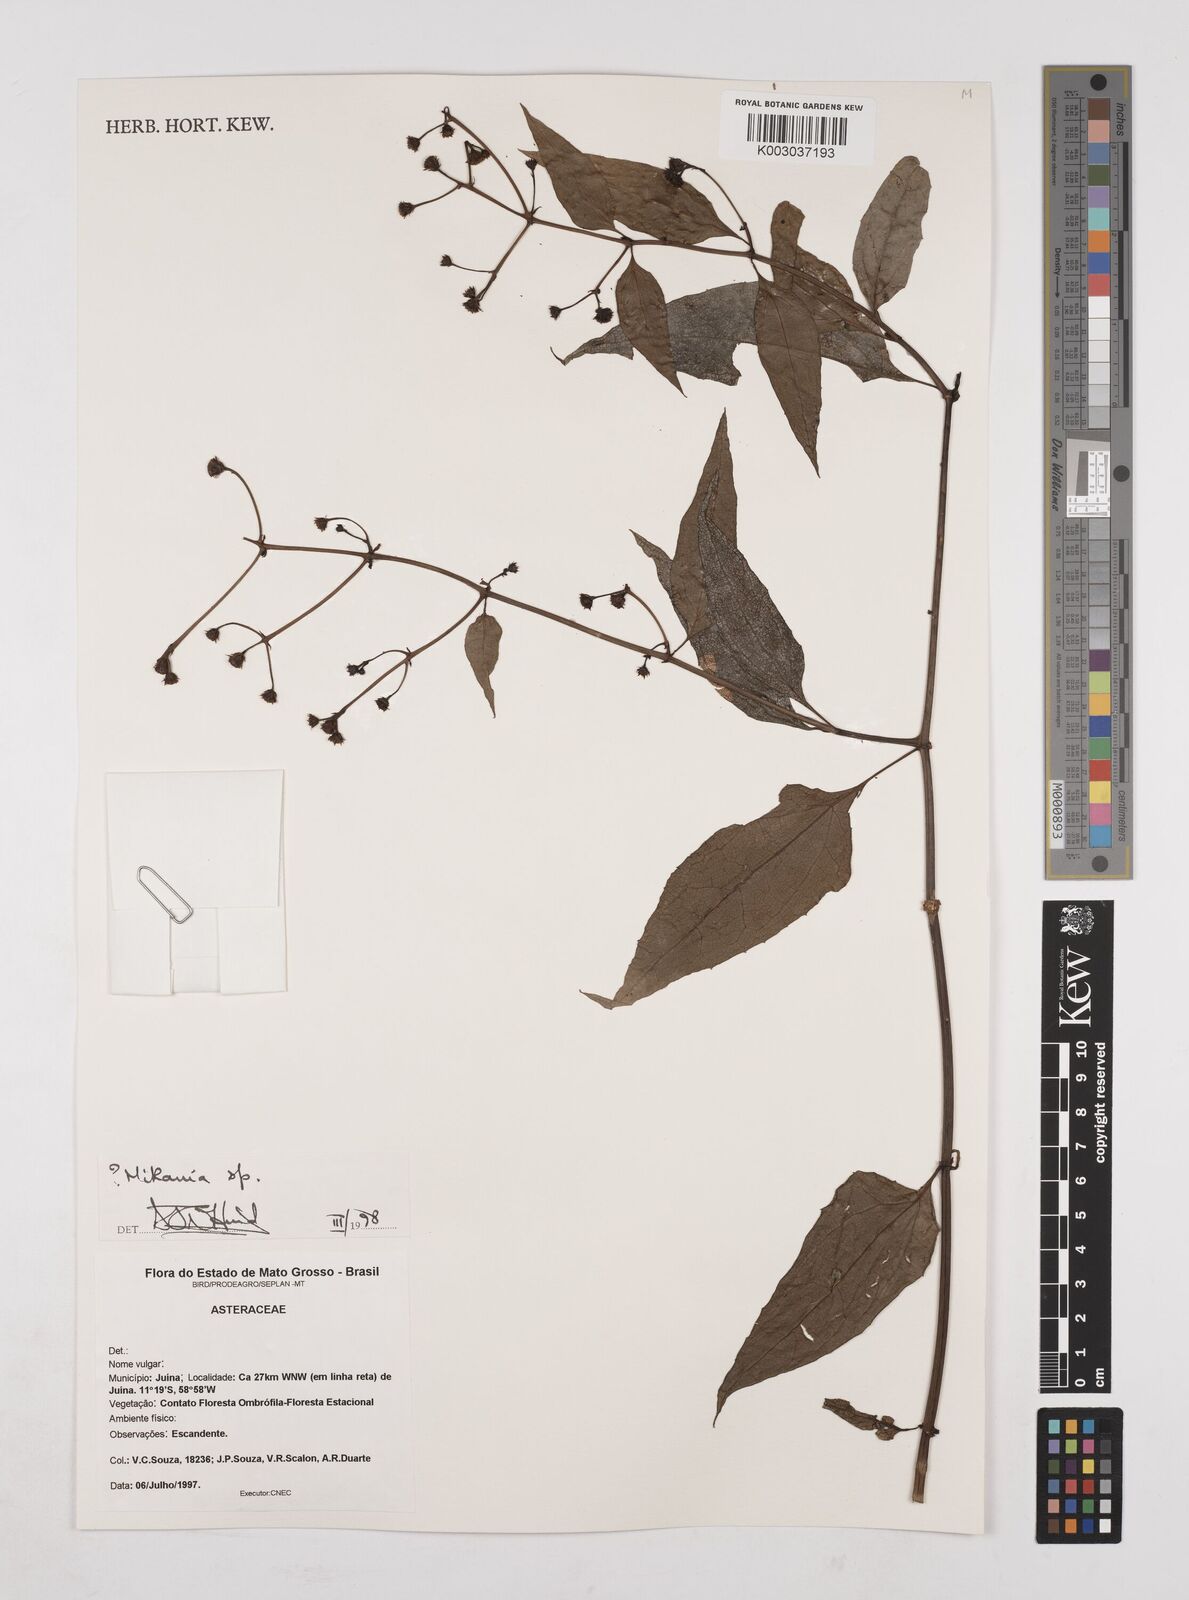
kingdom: Plantae
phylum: Tracheophyta
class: Magnoliopsida
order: Asterales
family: Asteraceae
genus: Mikania
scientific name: Mikania
